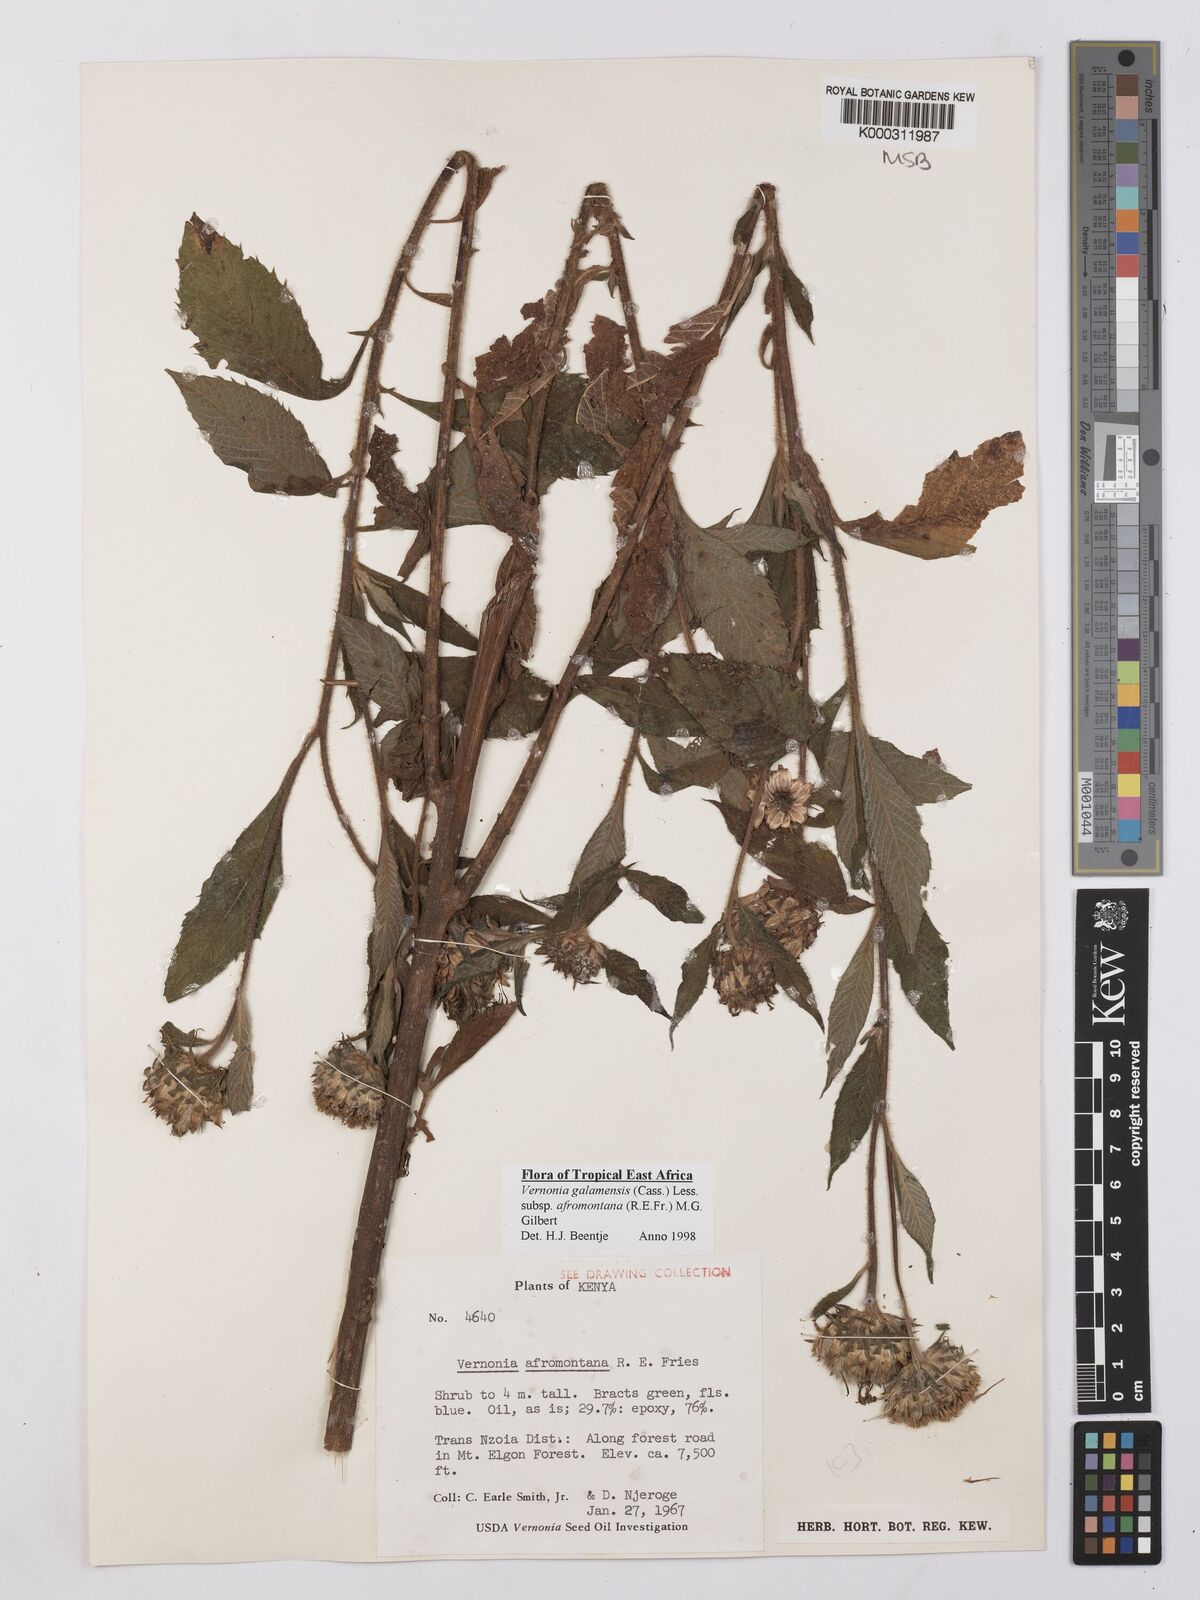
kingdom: Plantae
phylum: Tracheophyta
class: Magnoliopsida
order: Asterales
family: Asteraceae
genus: Vernonia
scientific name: Vernonia galamensis
